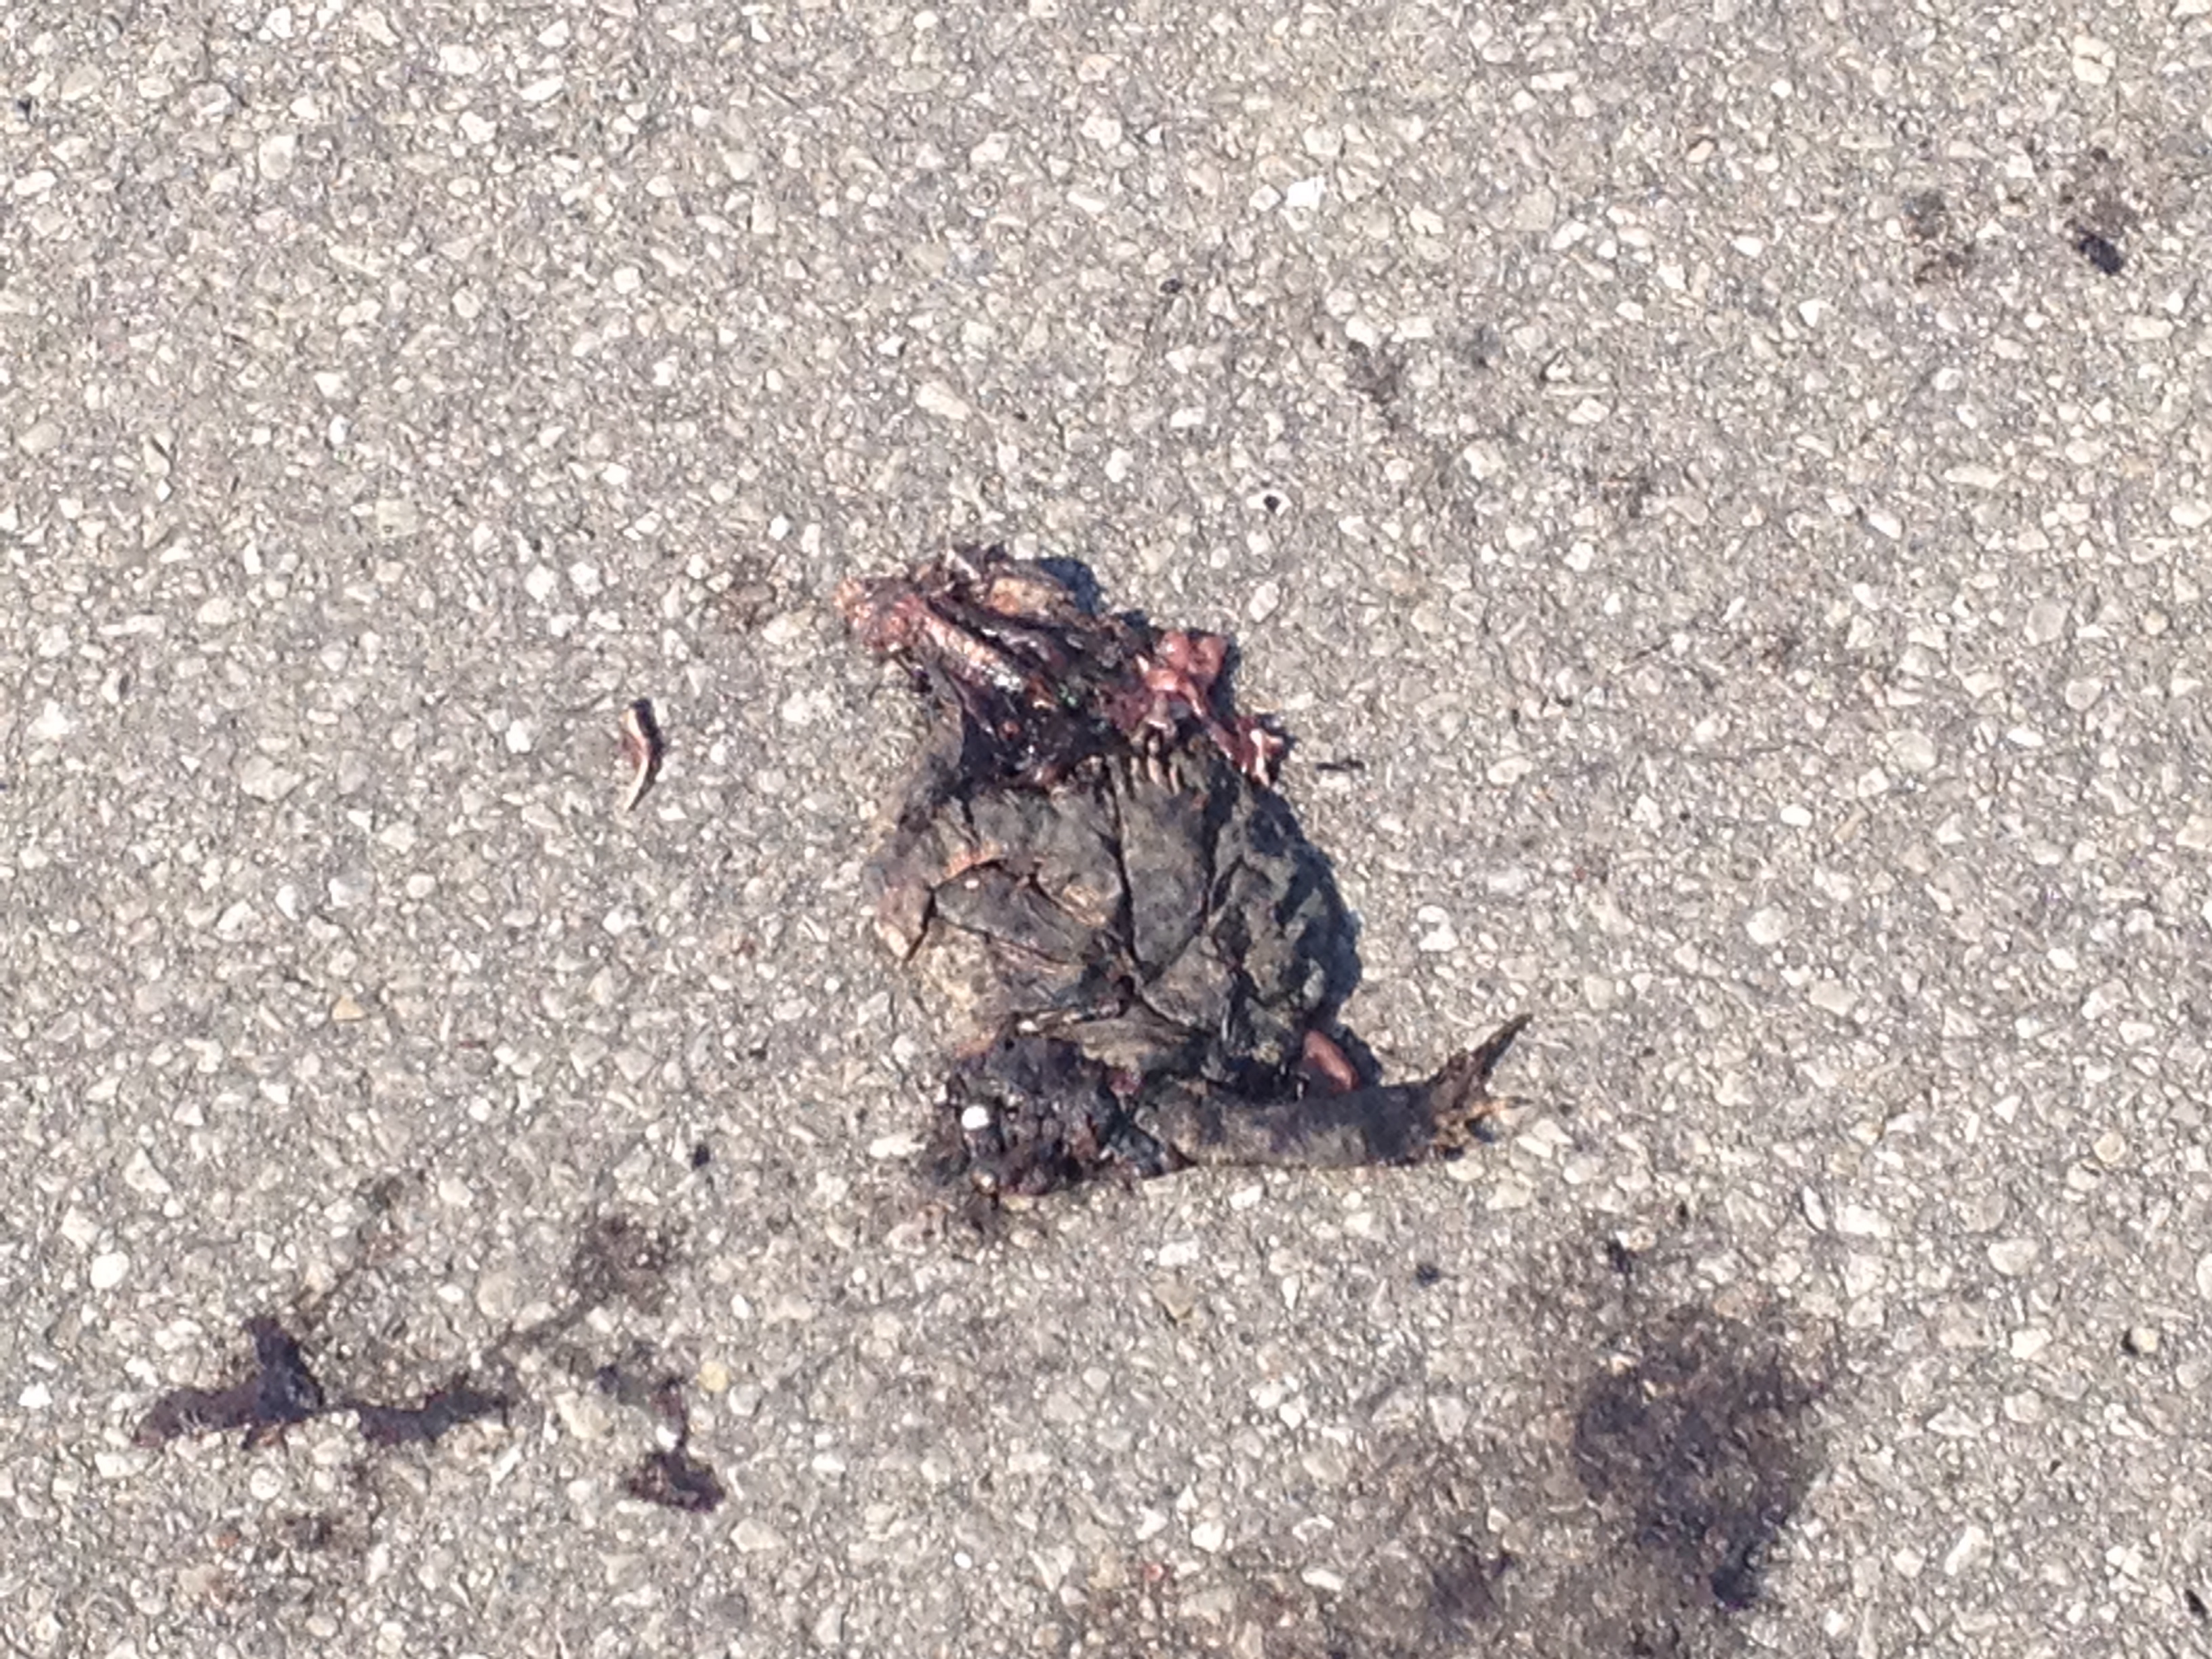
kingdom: Animalia
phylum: Chordata
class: Amphibia
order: Anura
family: Bufonidae
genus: Bufotes
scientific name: Bufotes viridis
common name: European green toad
